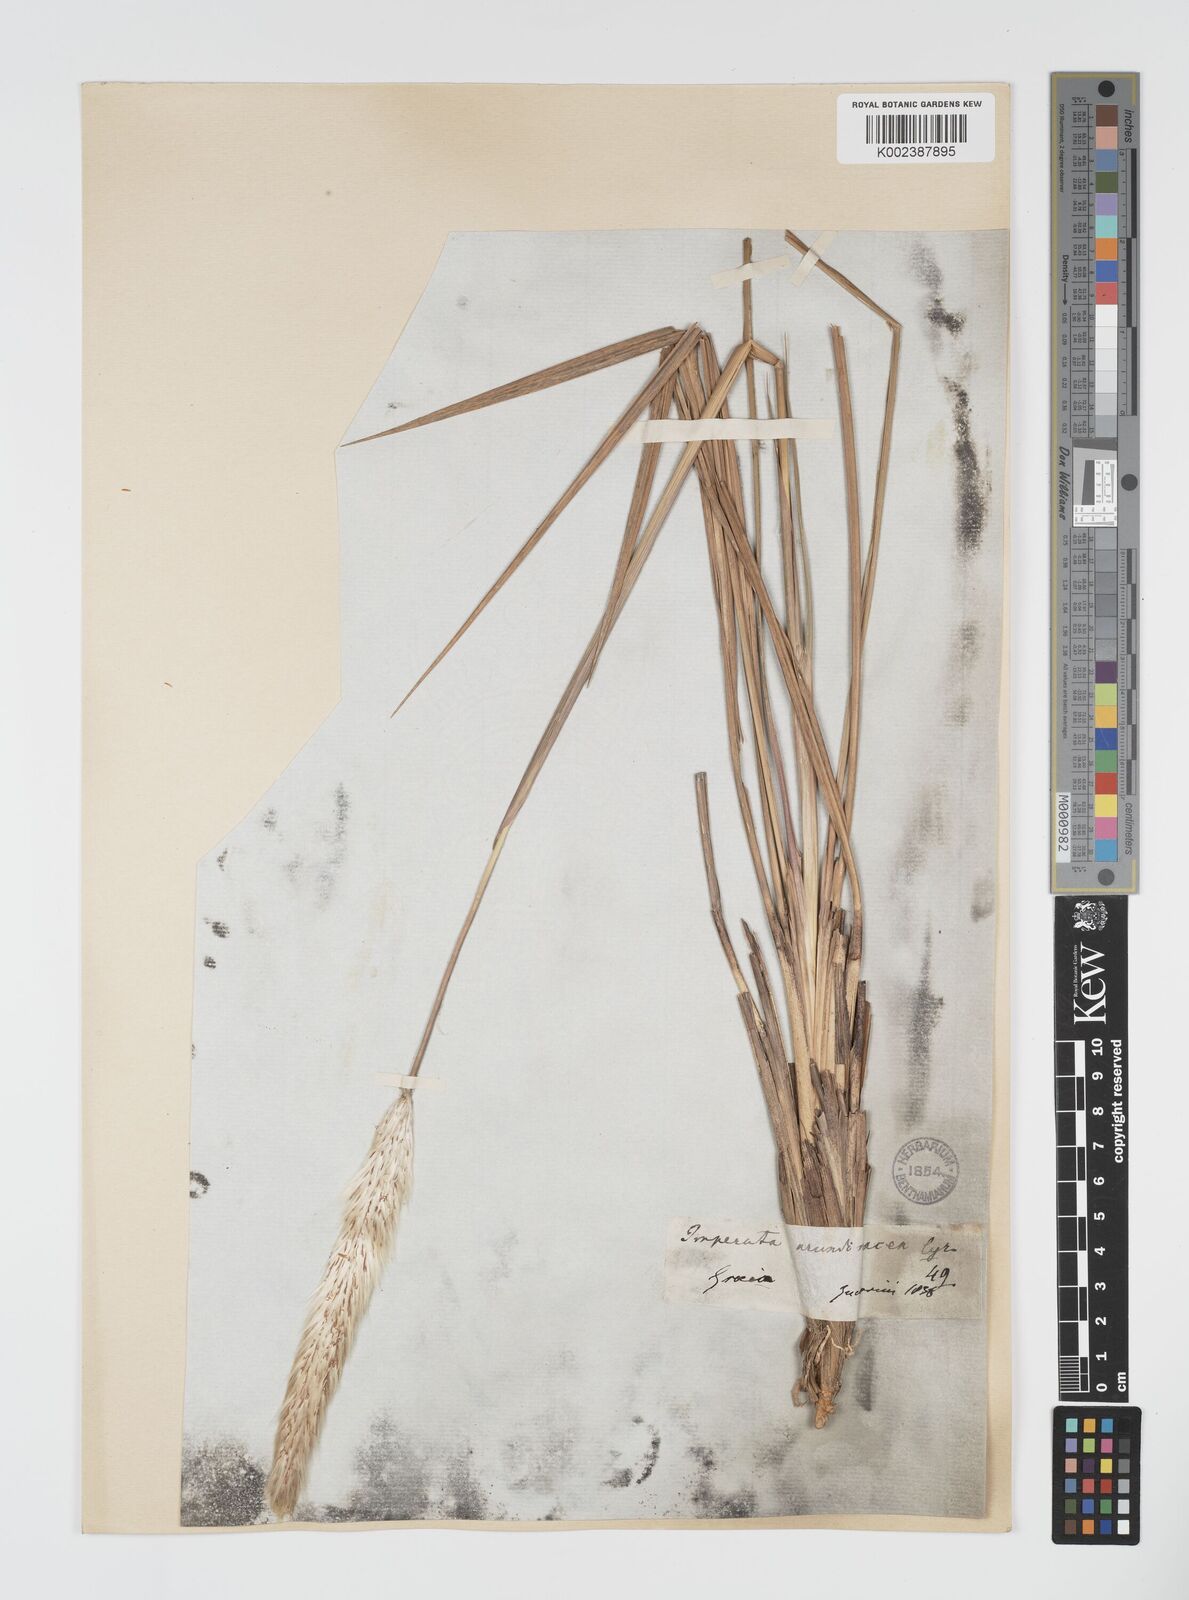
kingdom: Plantae
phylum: Tracheophyta
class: Liliopsida
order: Poales
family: Poaceae
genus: Imperata
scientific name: Imperata cylindrica
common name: Cogongrass
